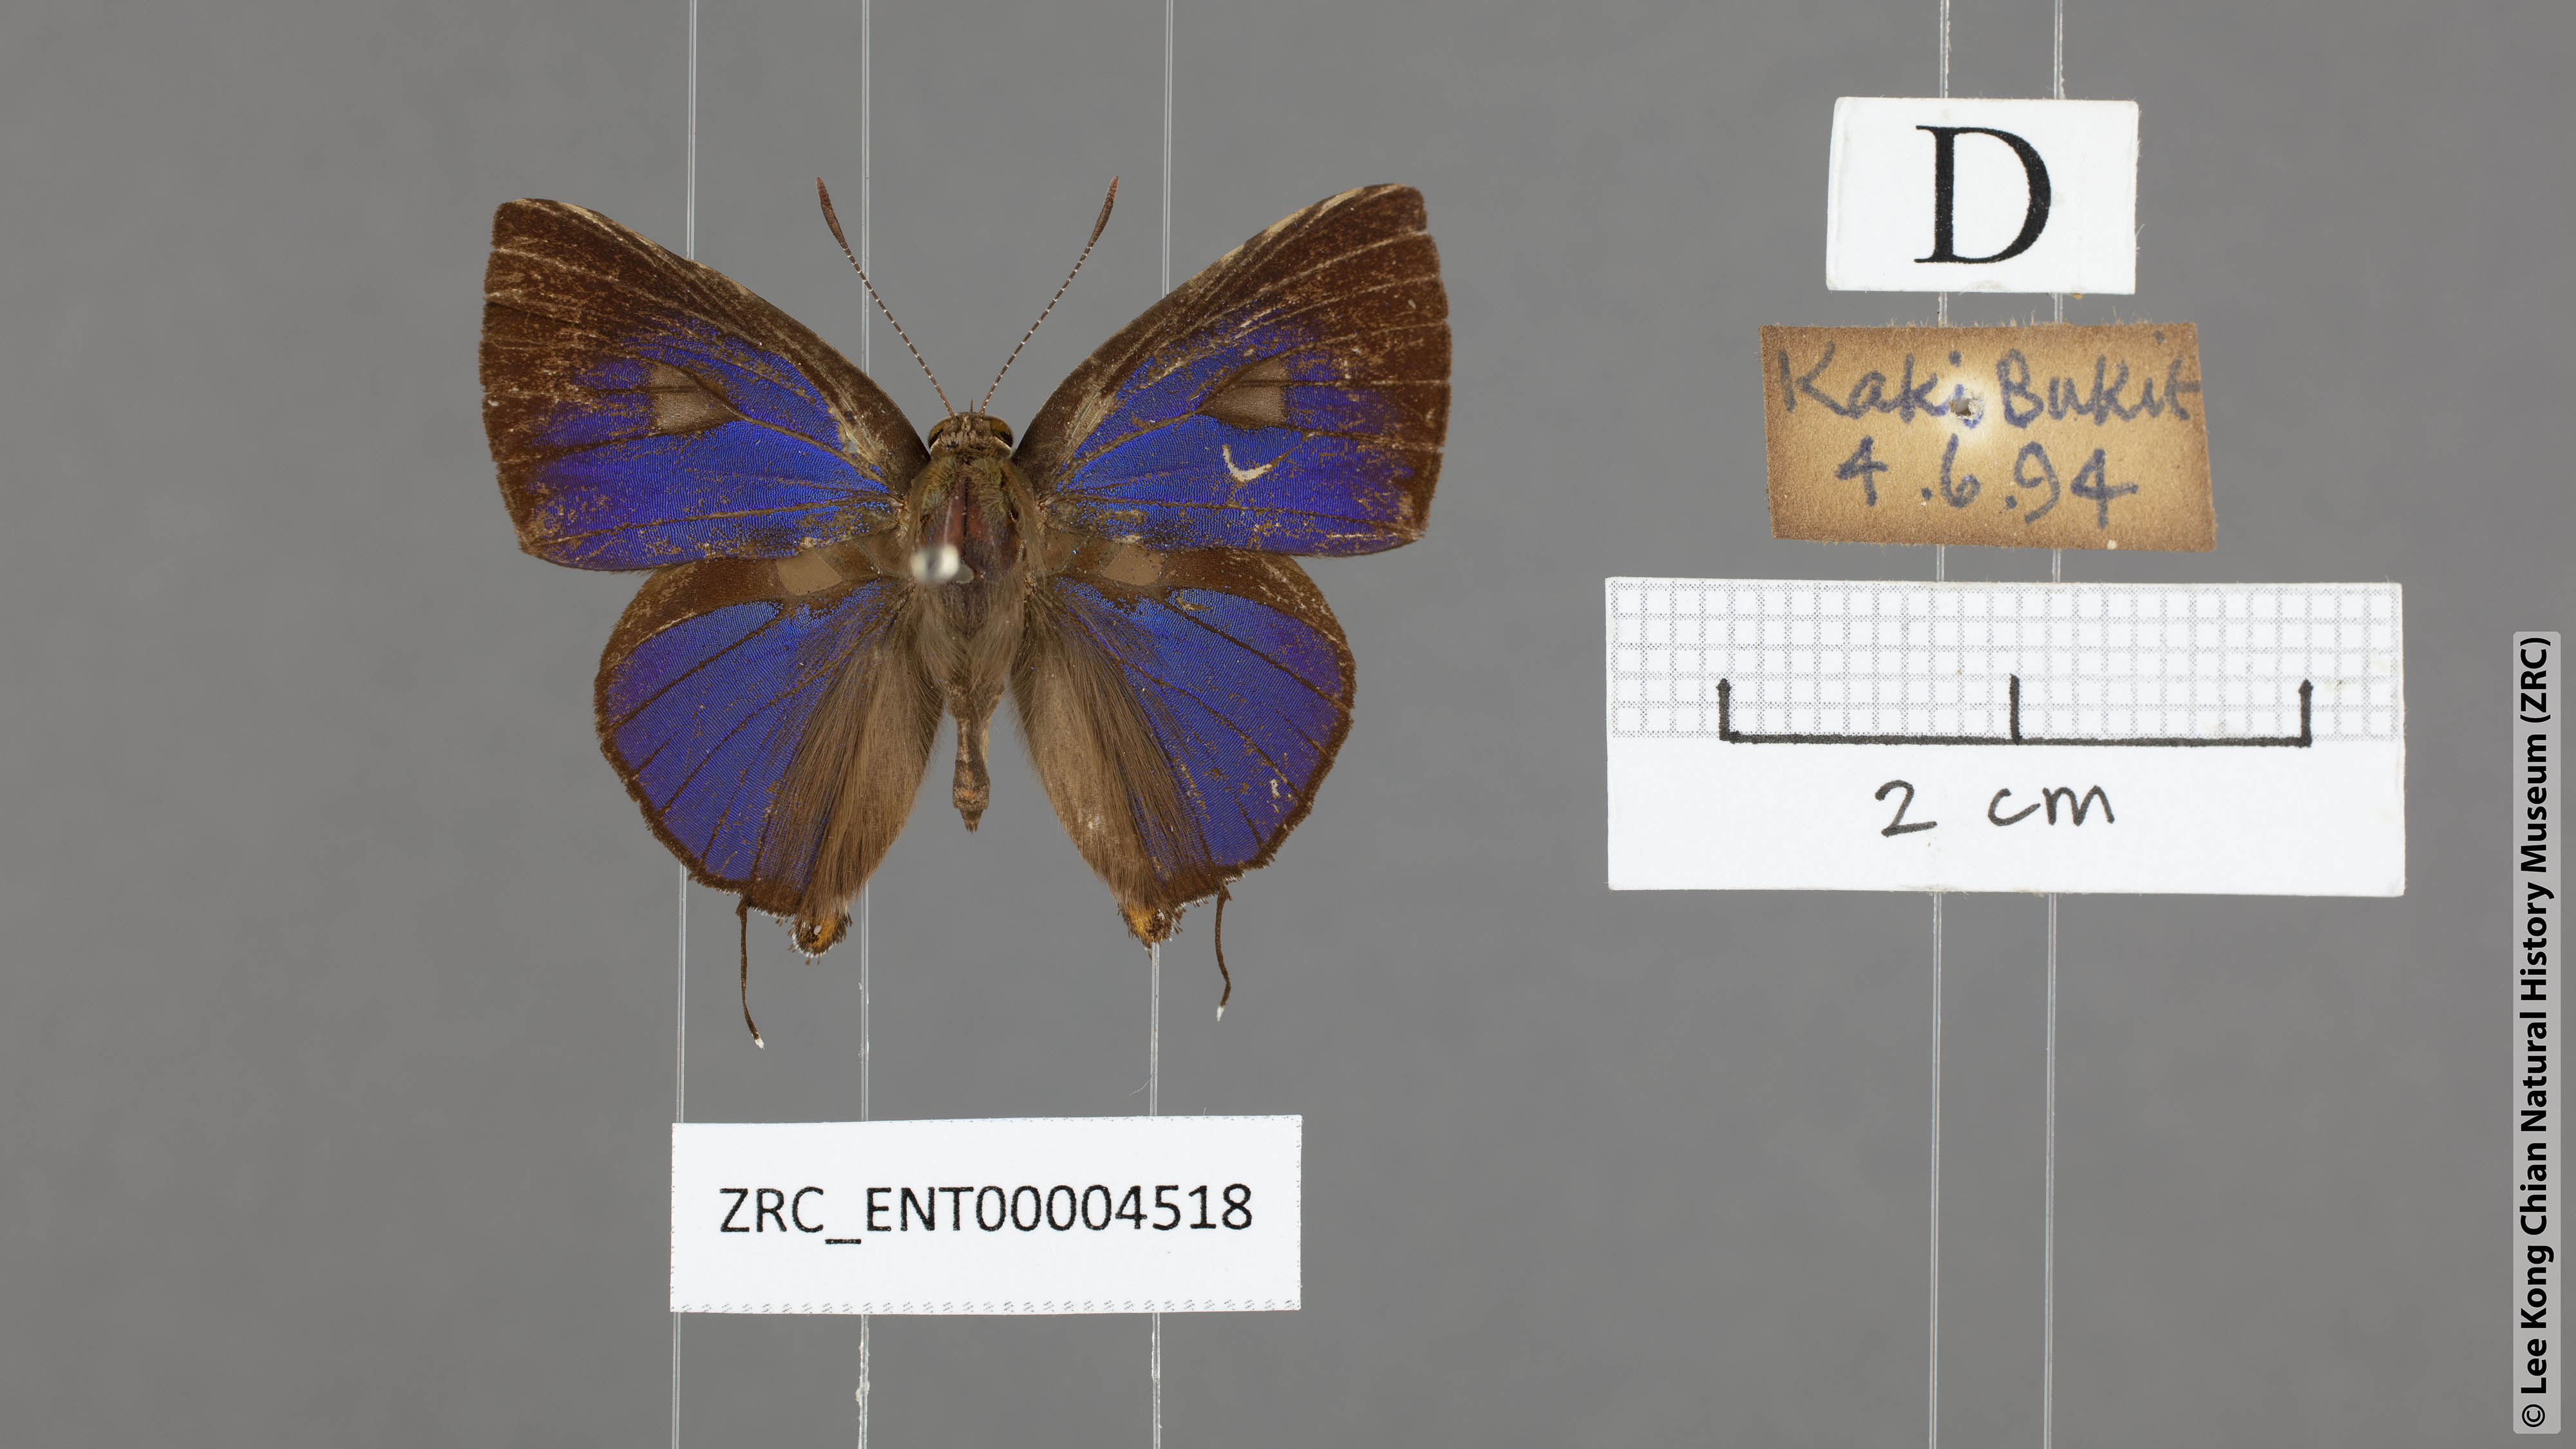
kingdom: Animalia
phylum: Arthropoda
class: Insecta
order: Lepidoptera
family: Lycaenidae
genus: Rapala
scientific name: Rapala rhoecus
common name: Brilliant flash
